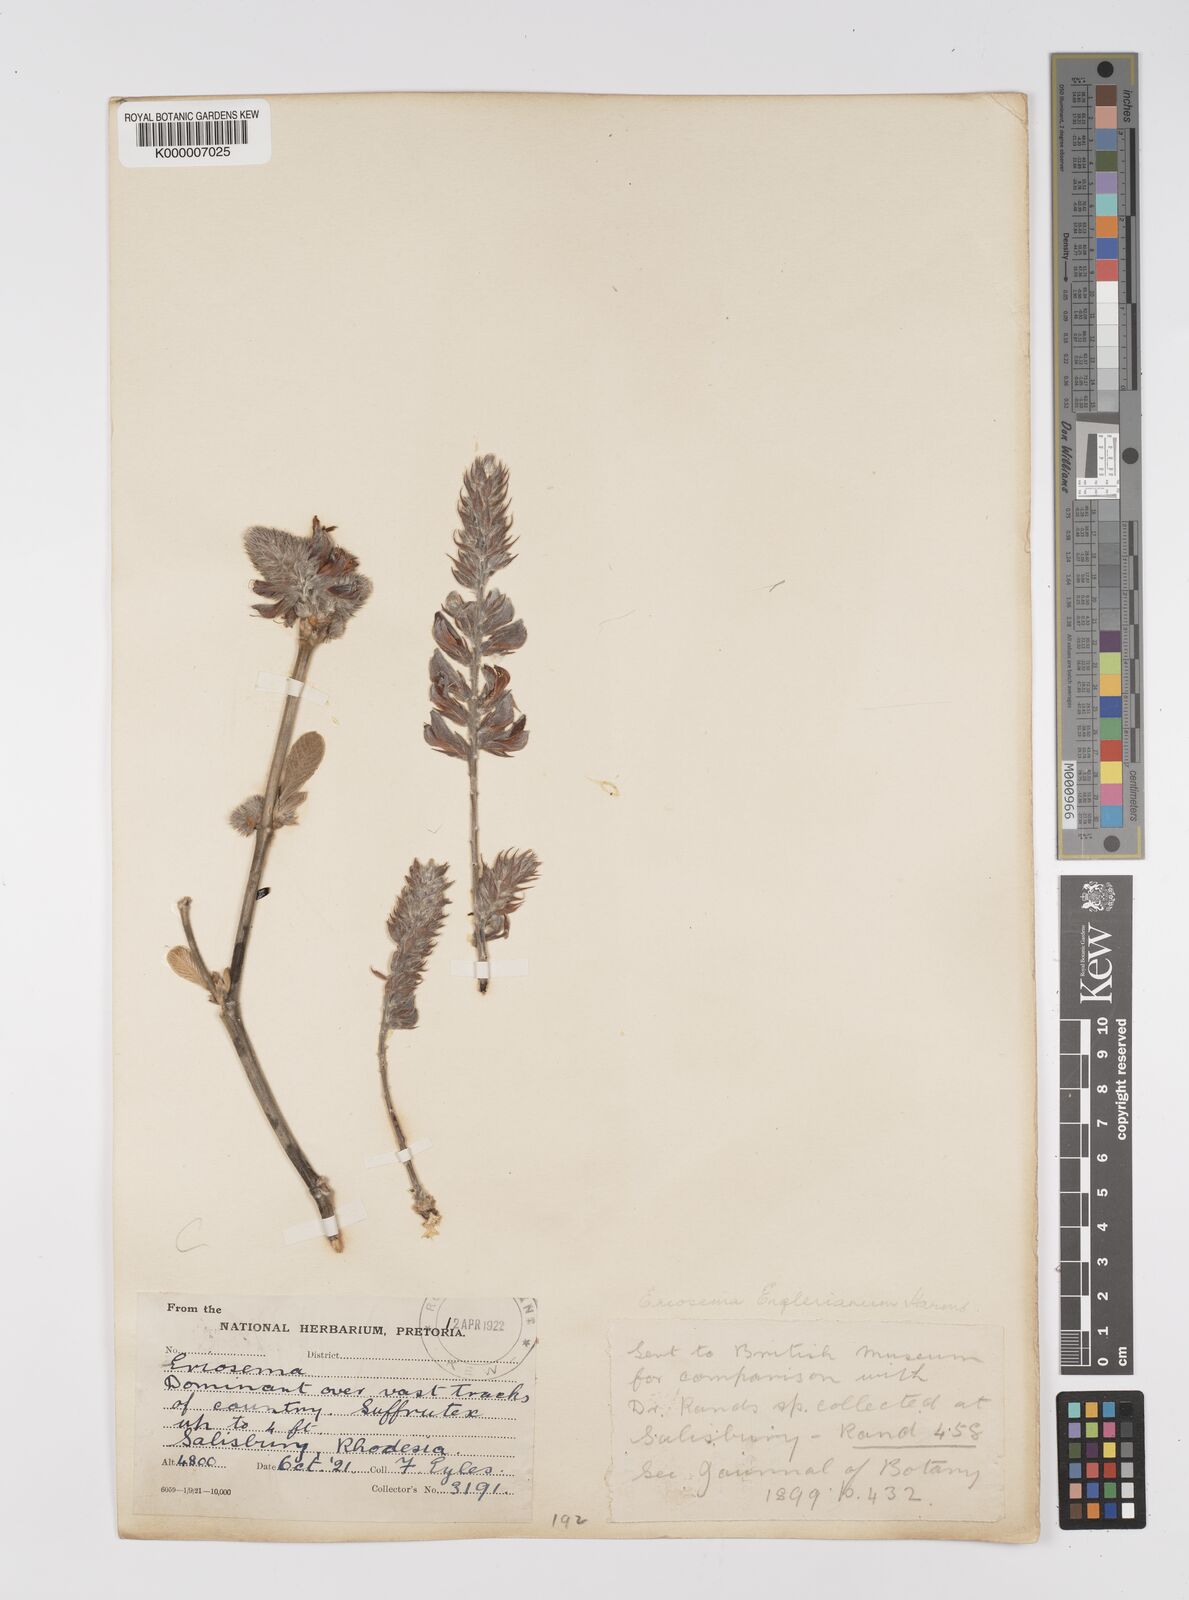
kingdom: Plantae
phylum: Tracheophyta
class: Magnoliopsida
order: Fabales
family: Fabaceae
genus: Eriosema
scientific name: Eriosema englerianum
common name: Blue bush
